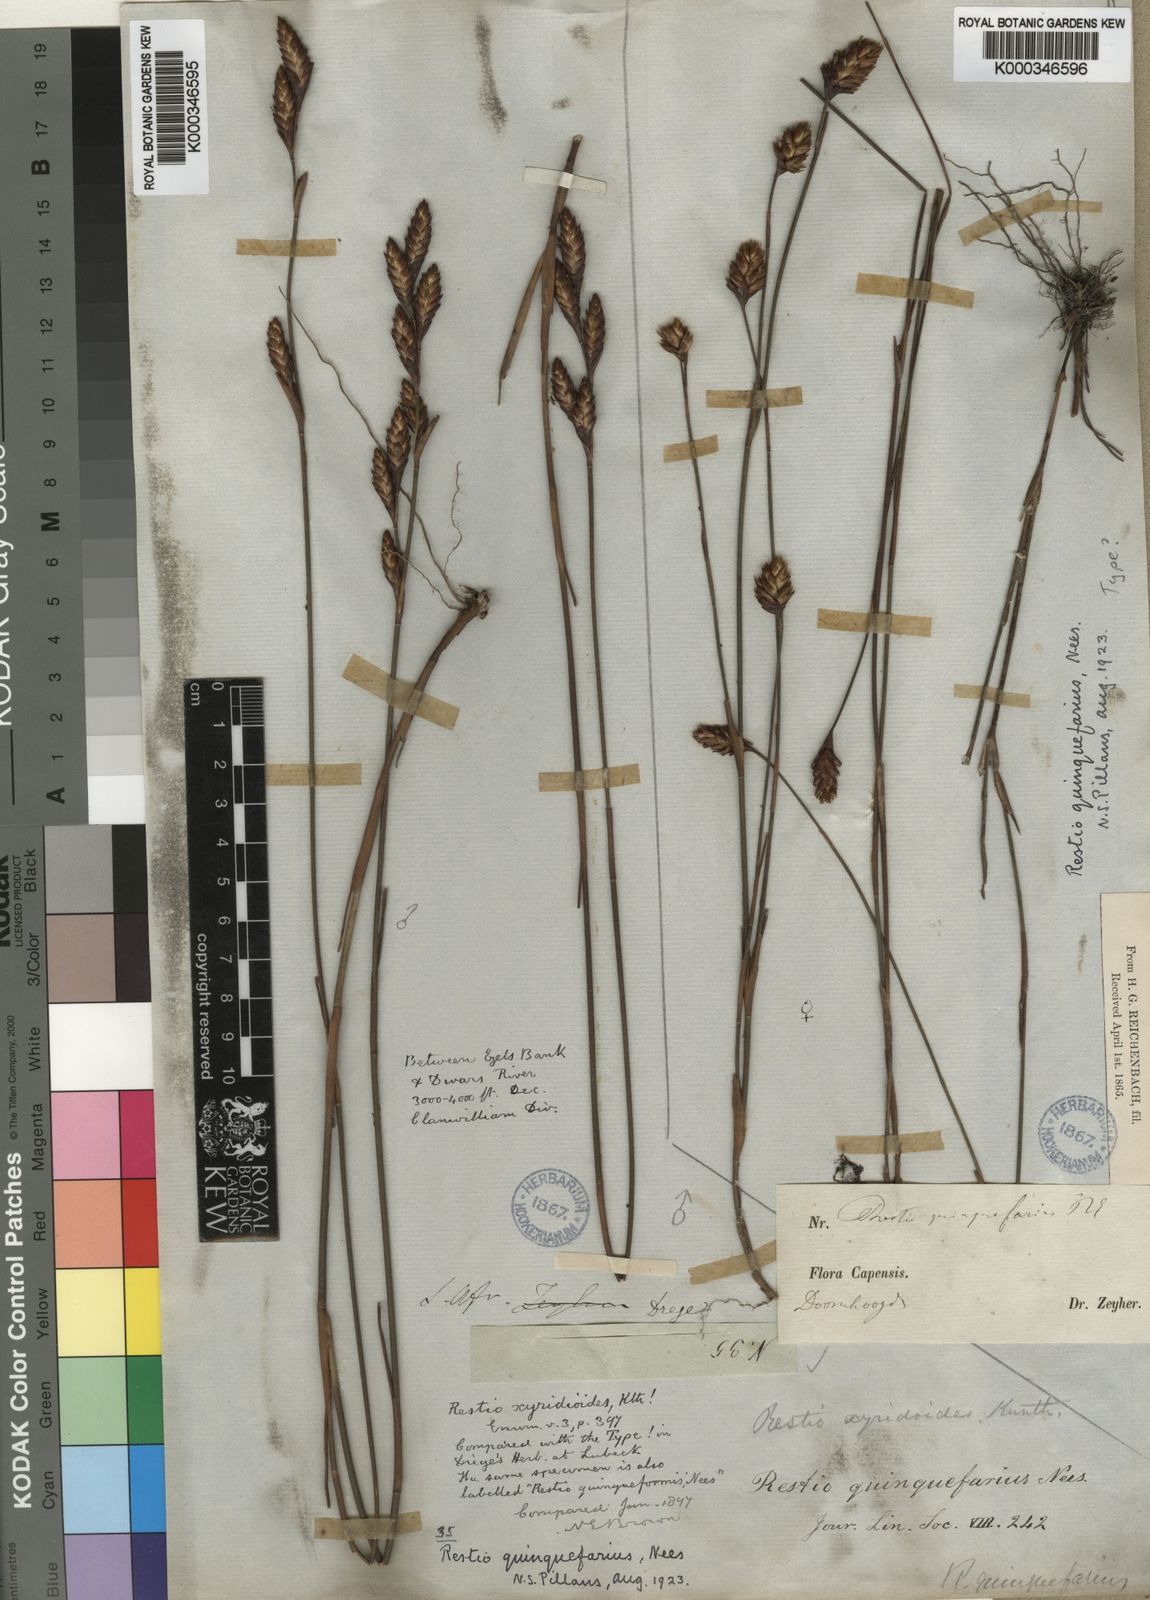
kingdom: Plantae
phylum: Tracheophyta
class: Liliopsida
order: Poales
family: Restionaceae
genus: Restio
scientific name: Restio quinquefarius
